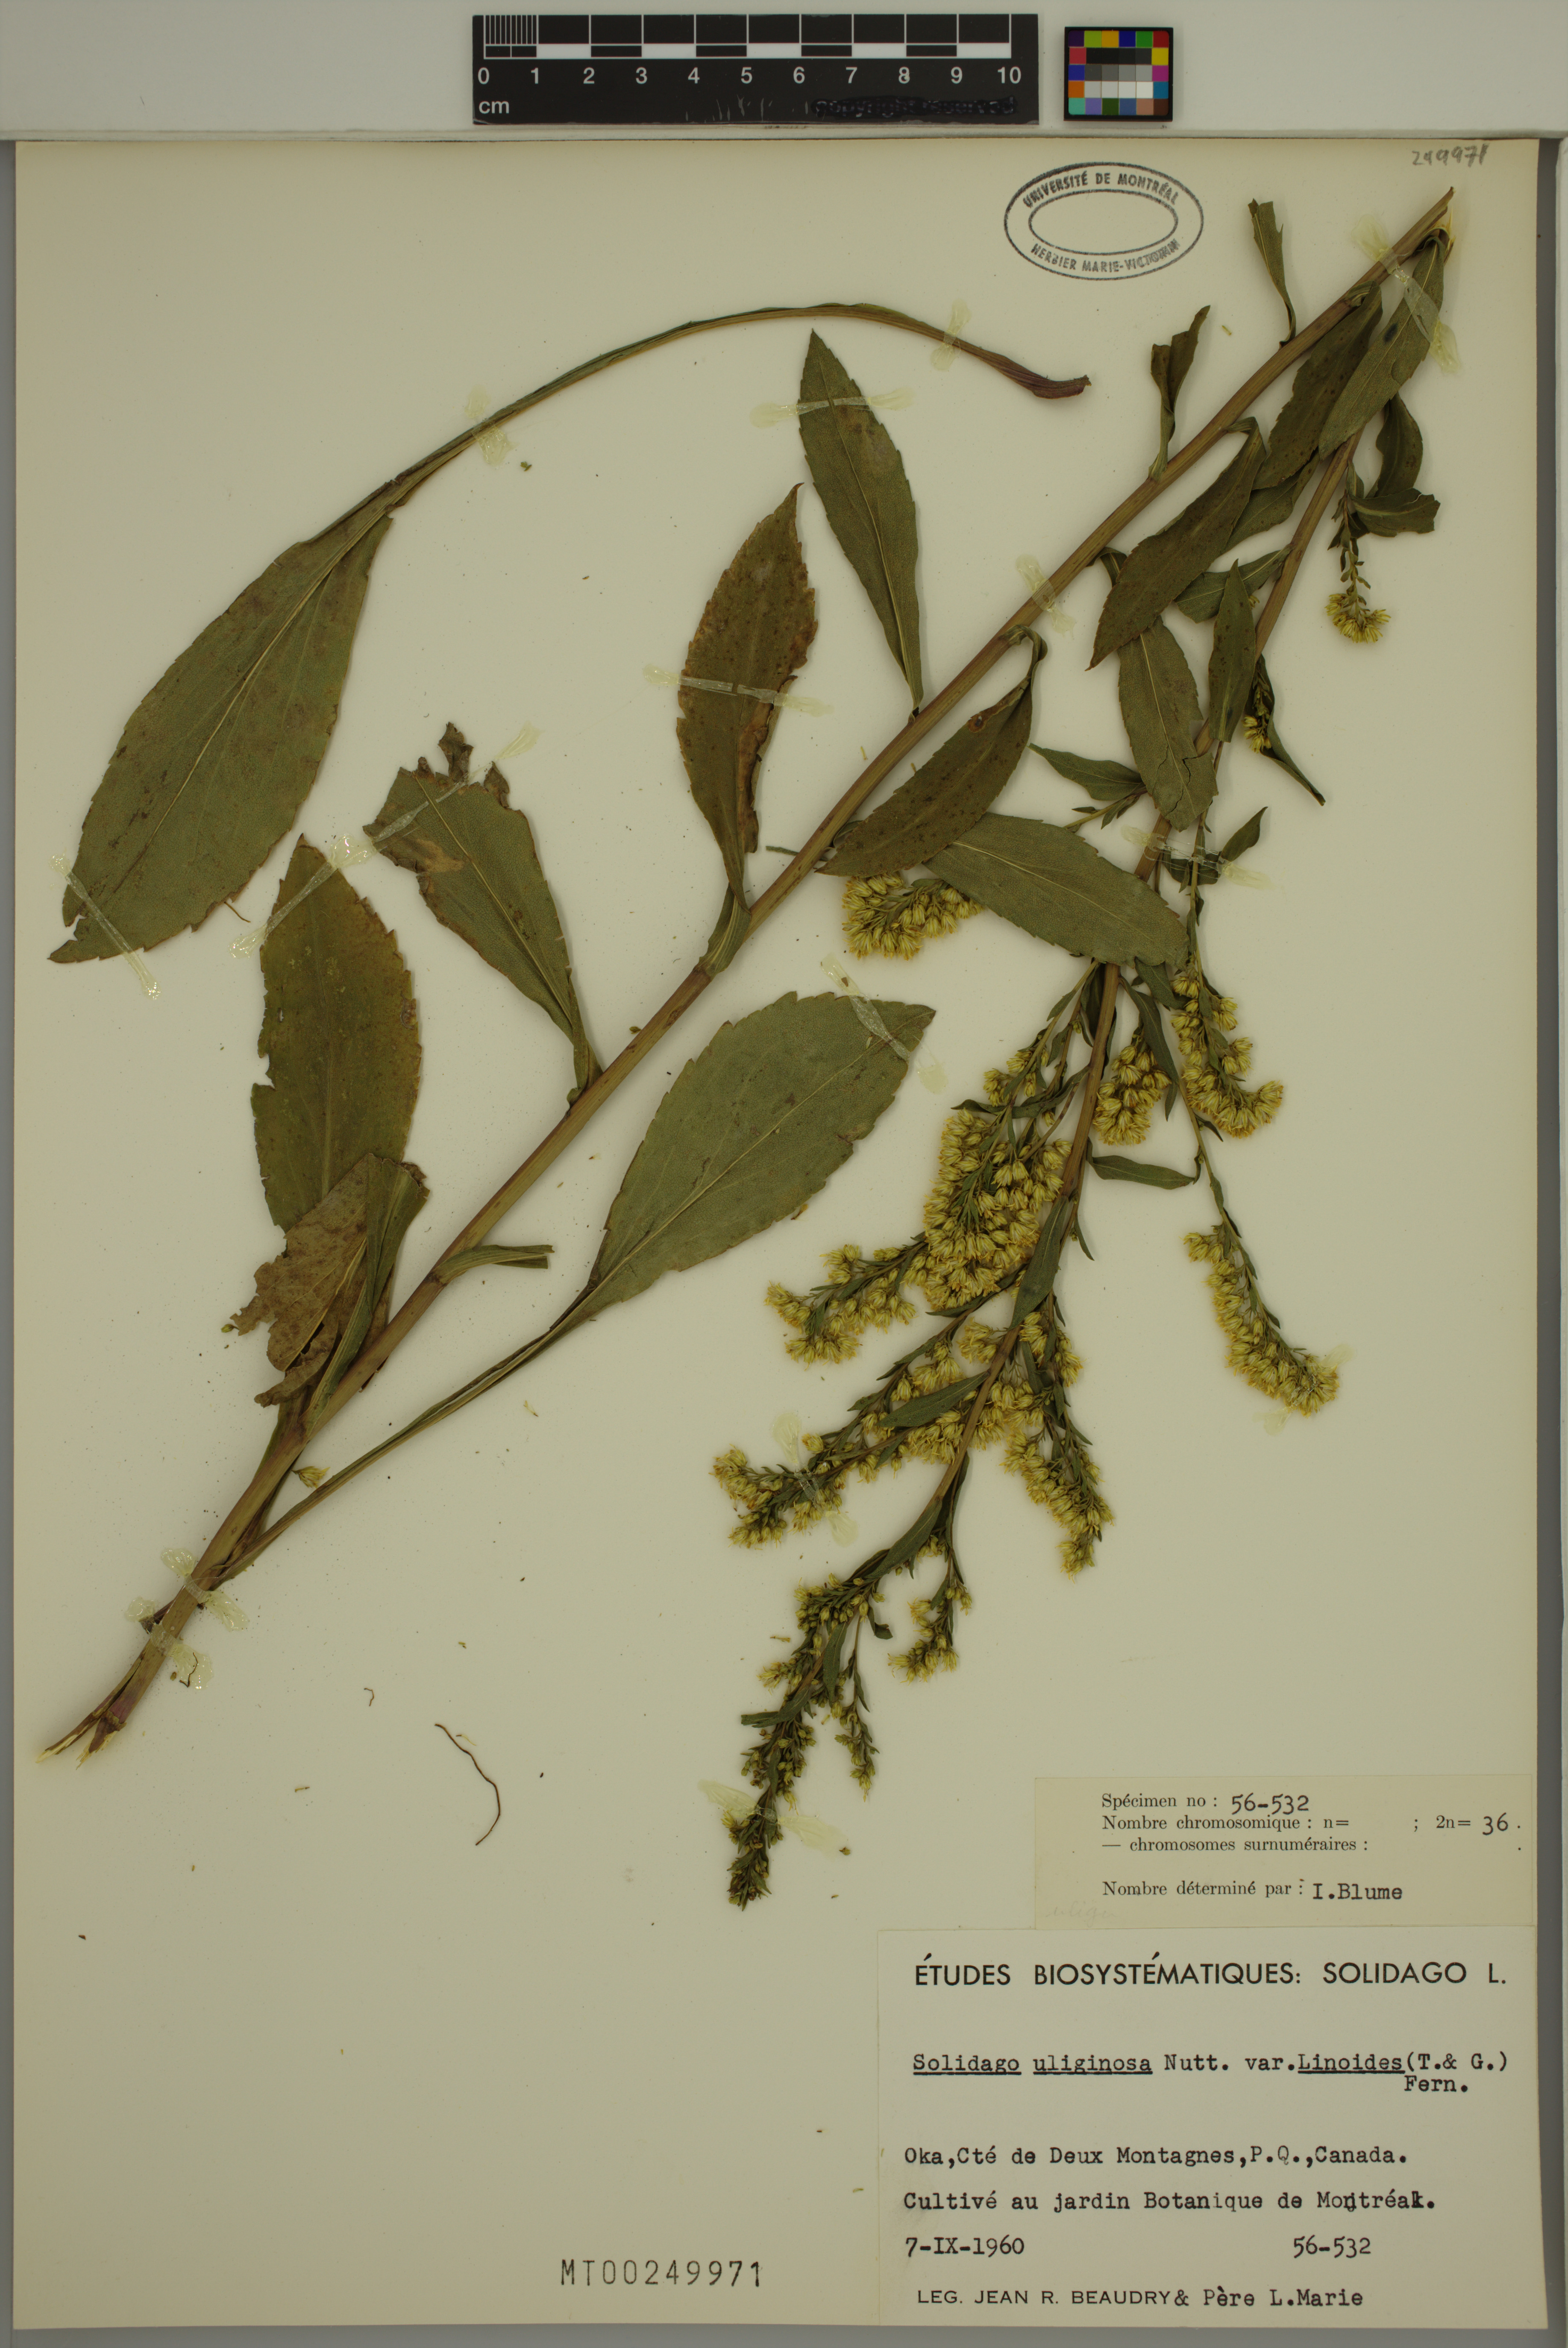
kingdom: Plantae
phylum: Tracheophyta
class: Magnoliopsida
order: Asterales
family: Asteraceae
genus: Solidago
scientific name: Solidago uliginosa
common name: Bog goldenrod
